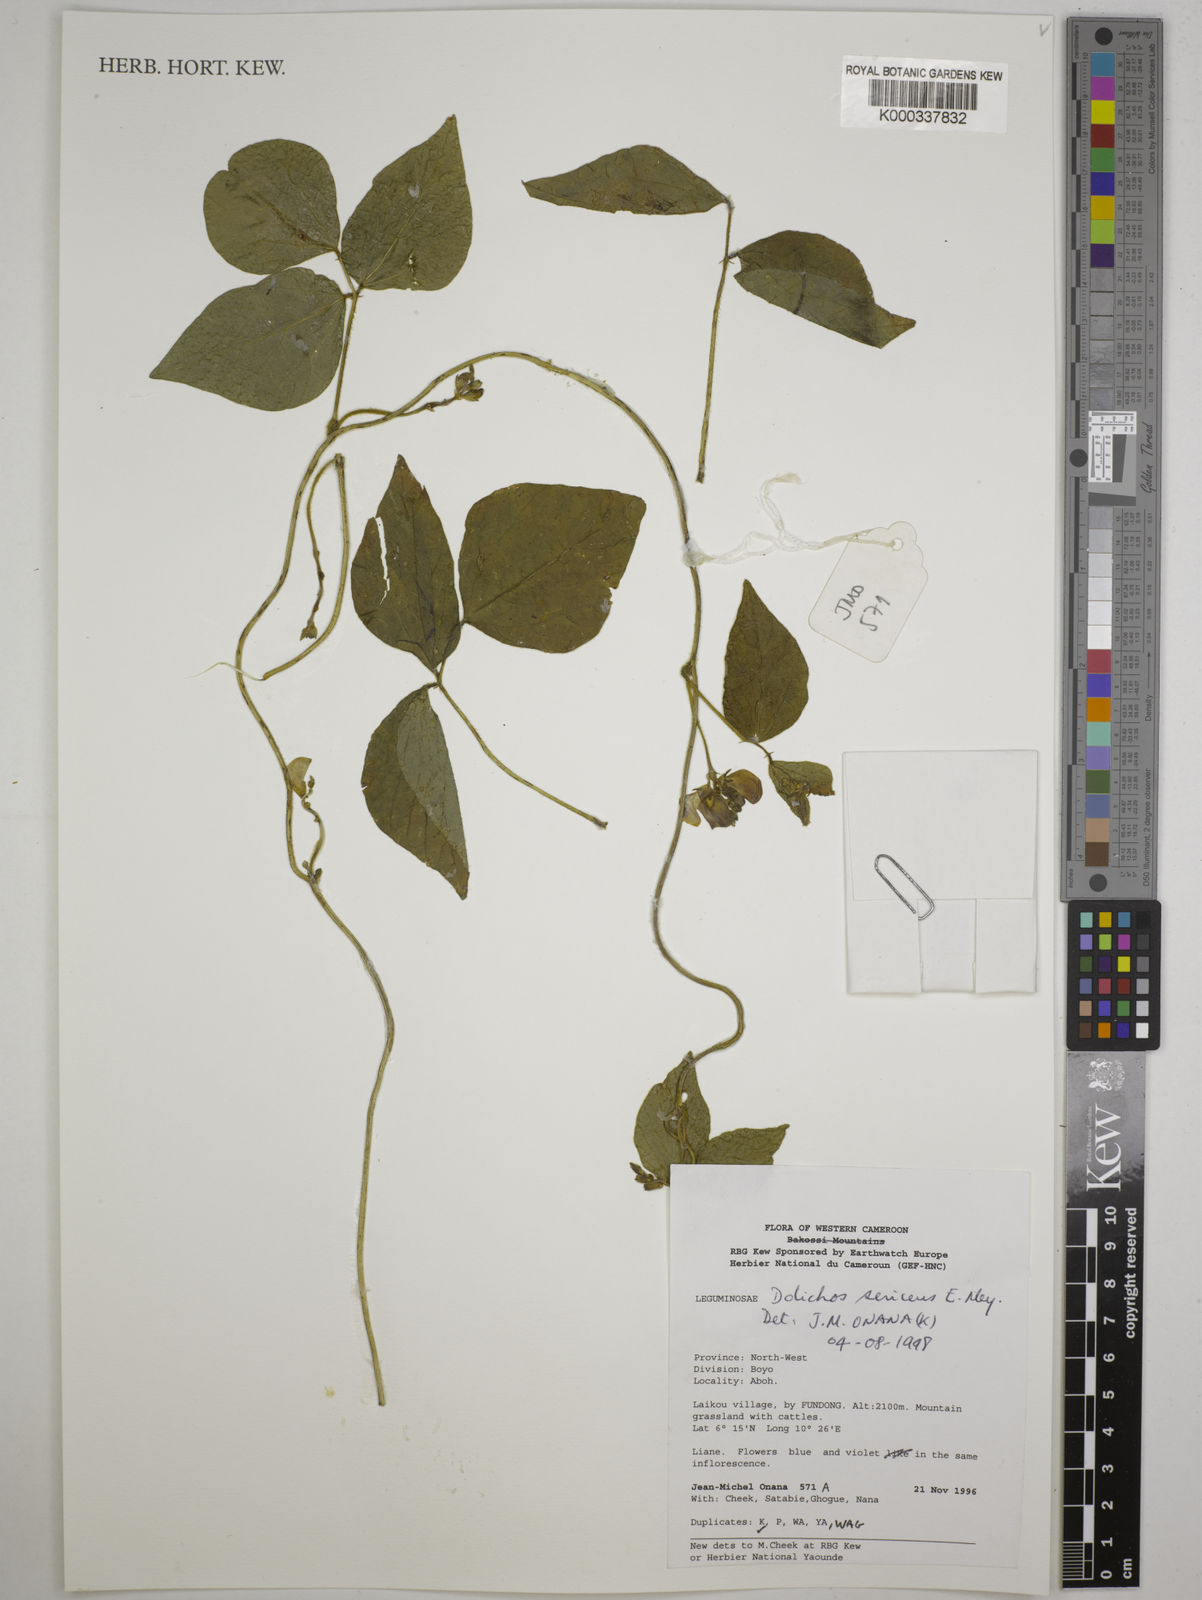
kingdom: Plantae
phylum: Tracheophyta
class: Magnoliopsida
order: Fabales
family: Fabaceae
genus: Dolichos
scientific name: Dolichos sericeus
